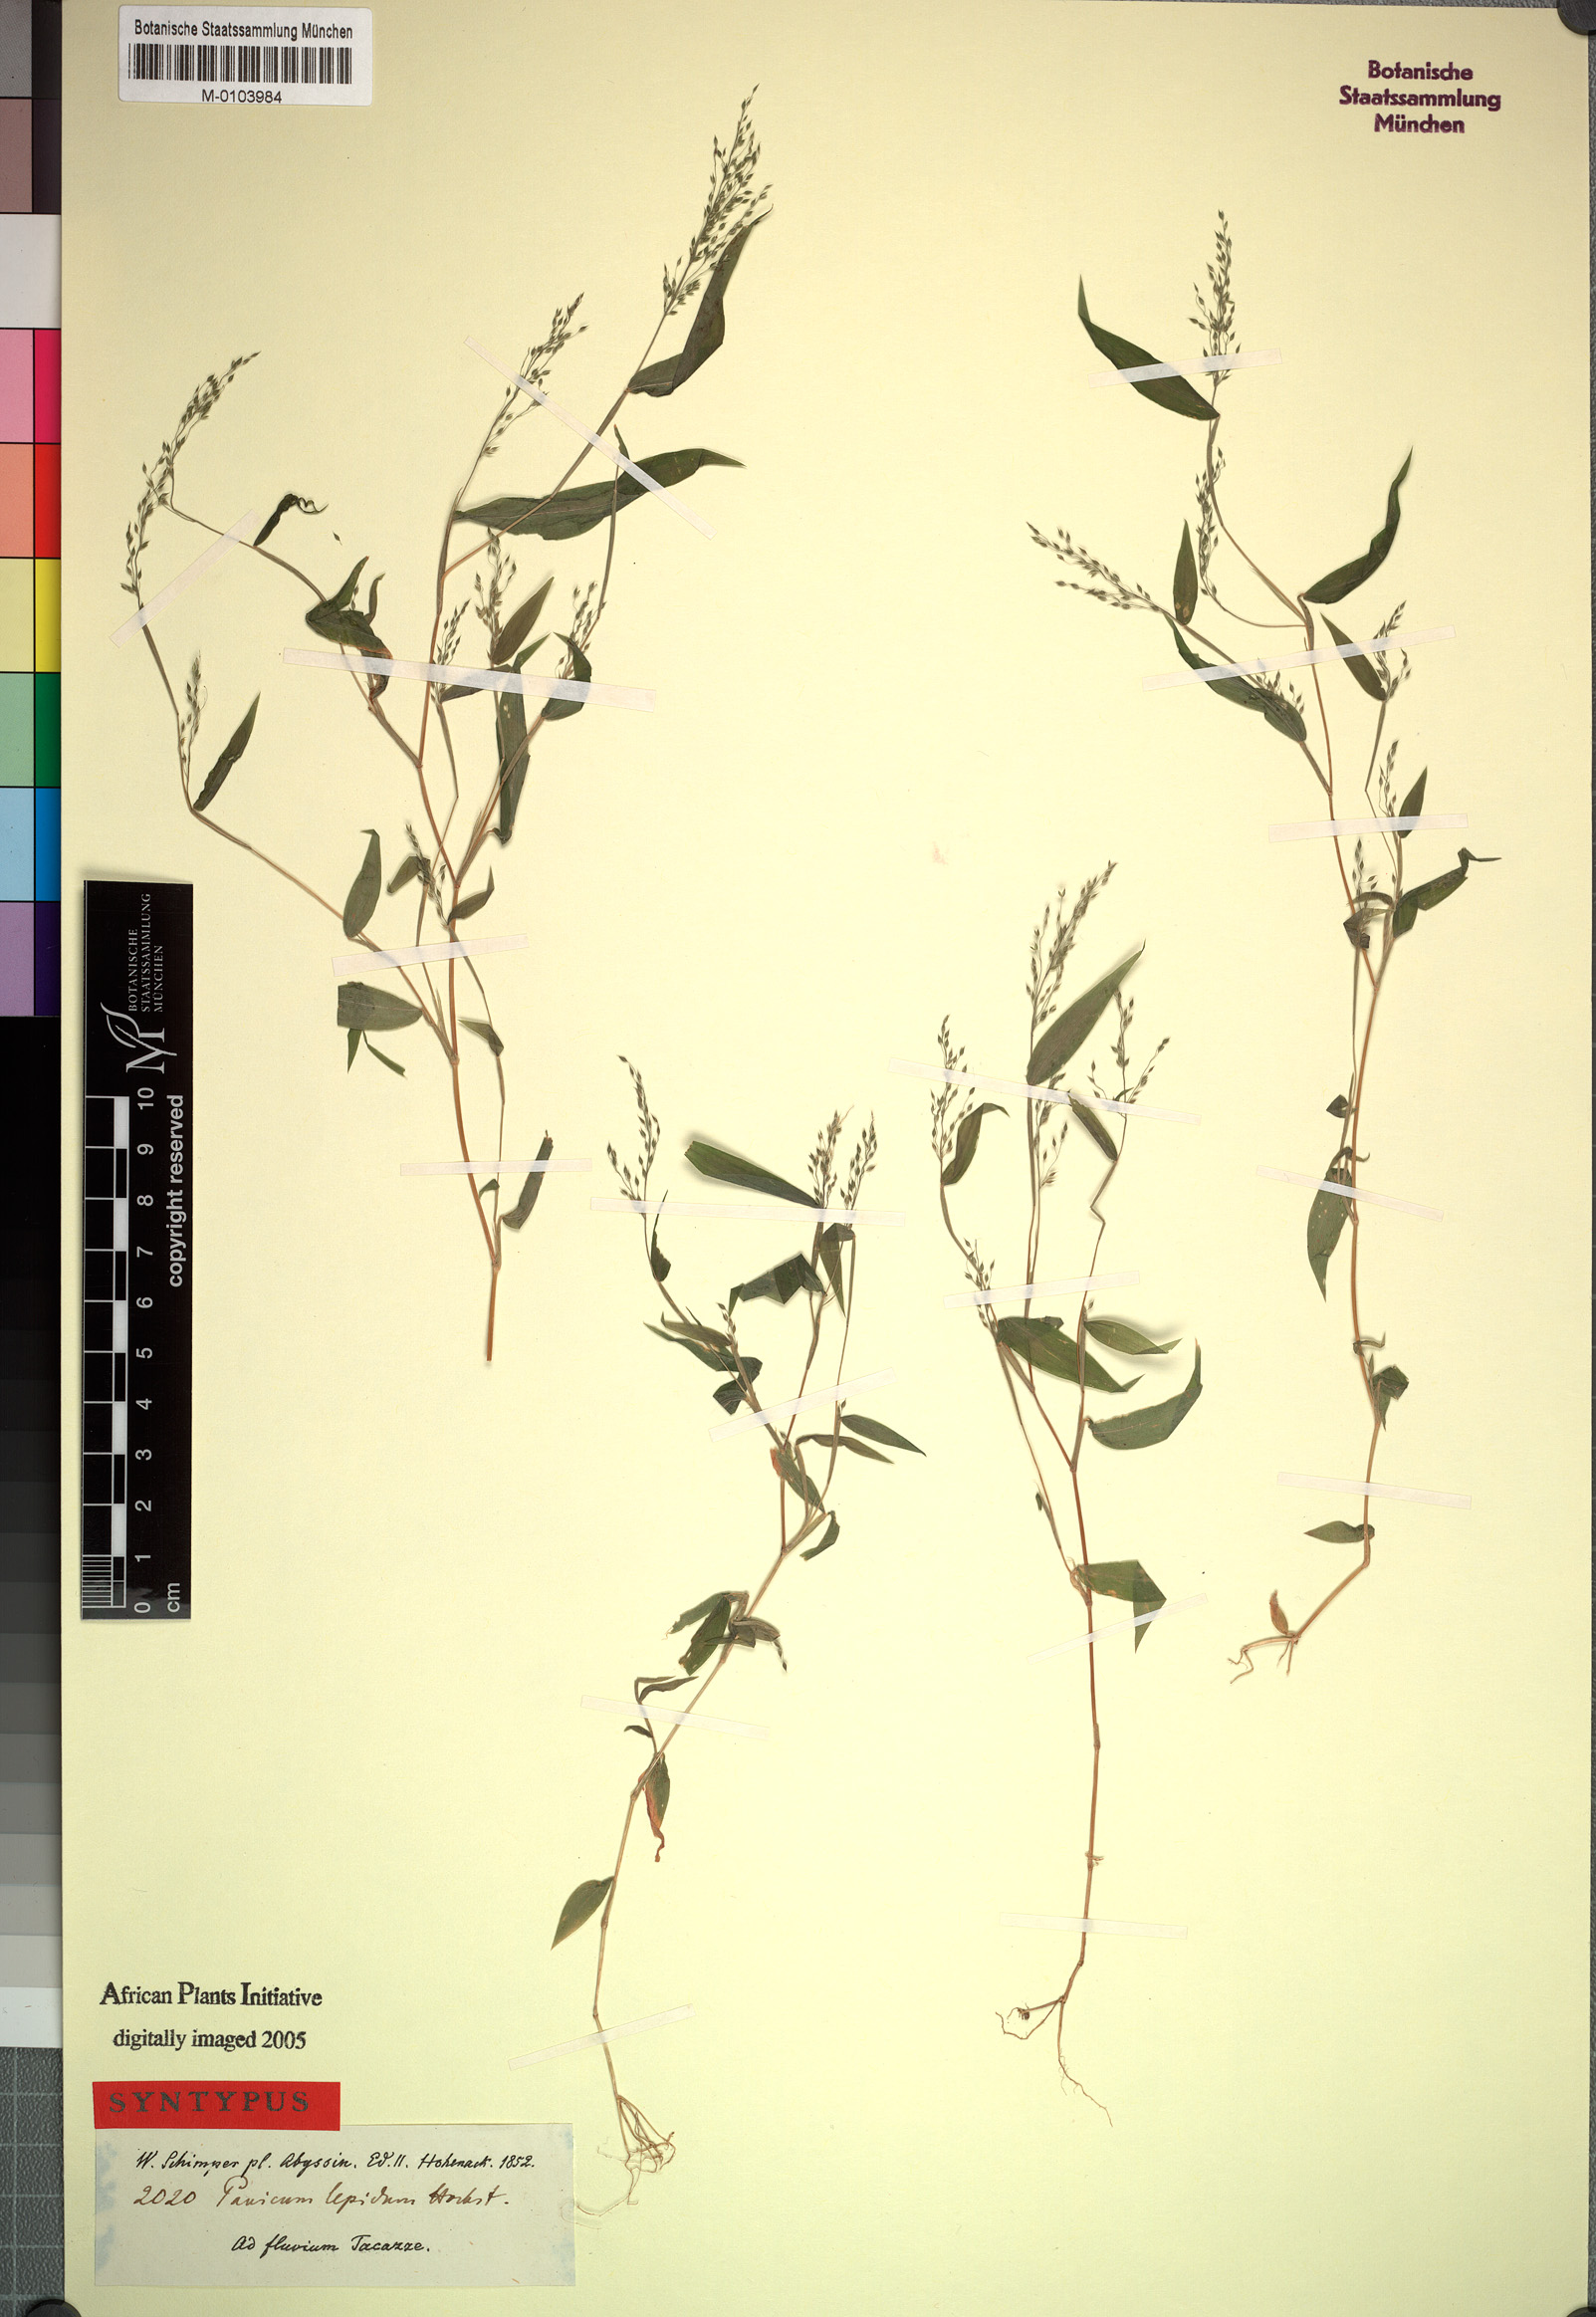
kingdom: Plantae
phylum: Tracheophyta
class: Liliopsida
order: Poales
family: Poaceae
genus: Panicum
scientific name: Panicum delicatulum
